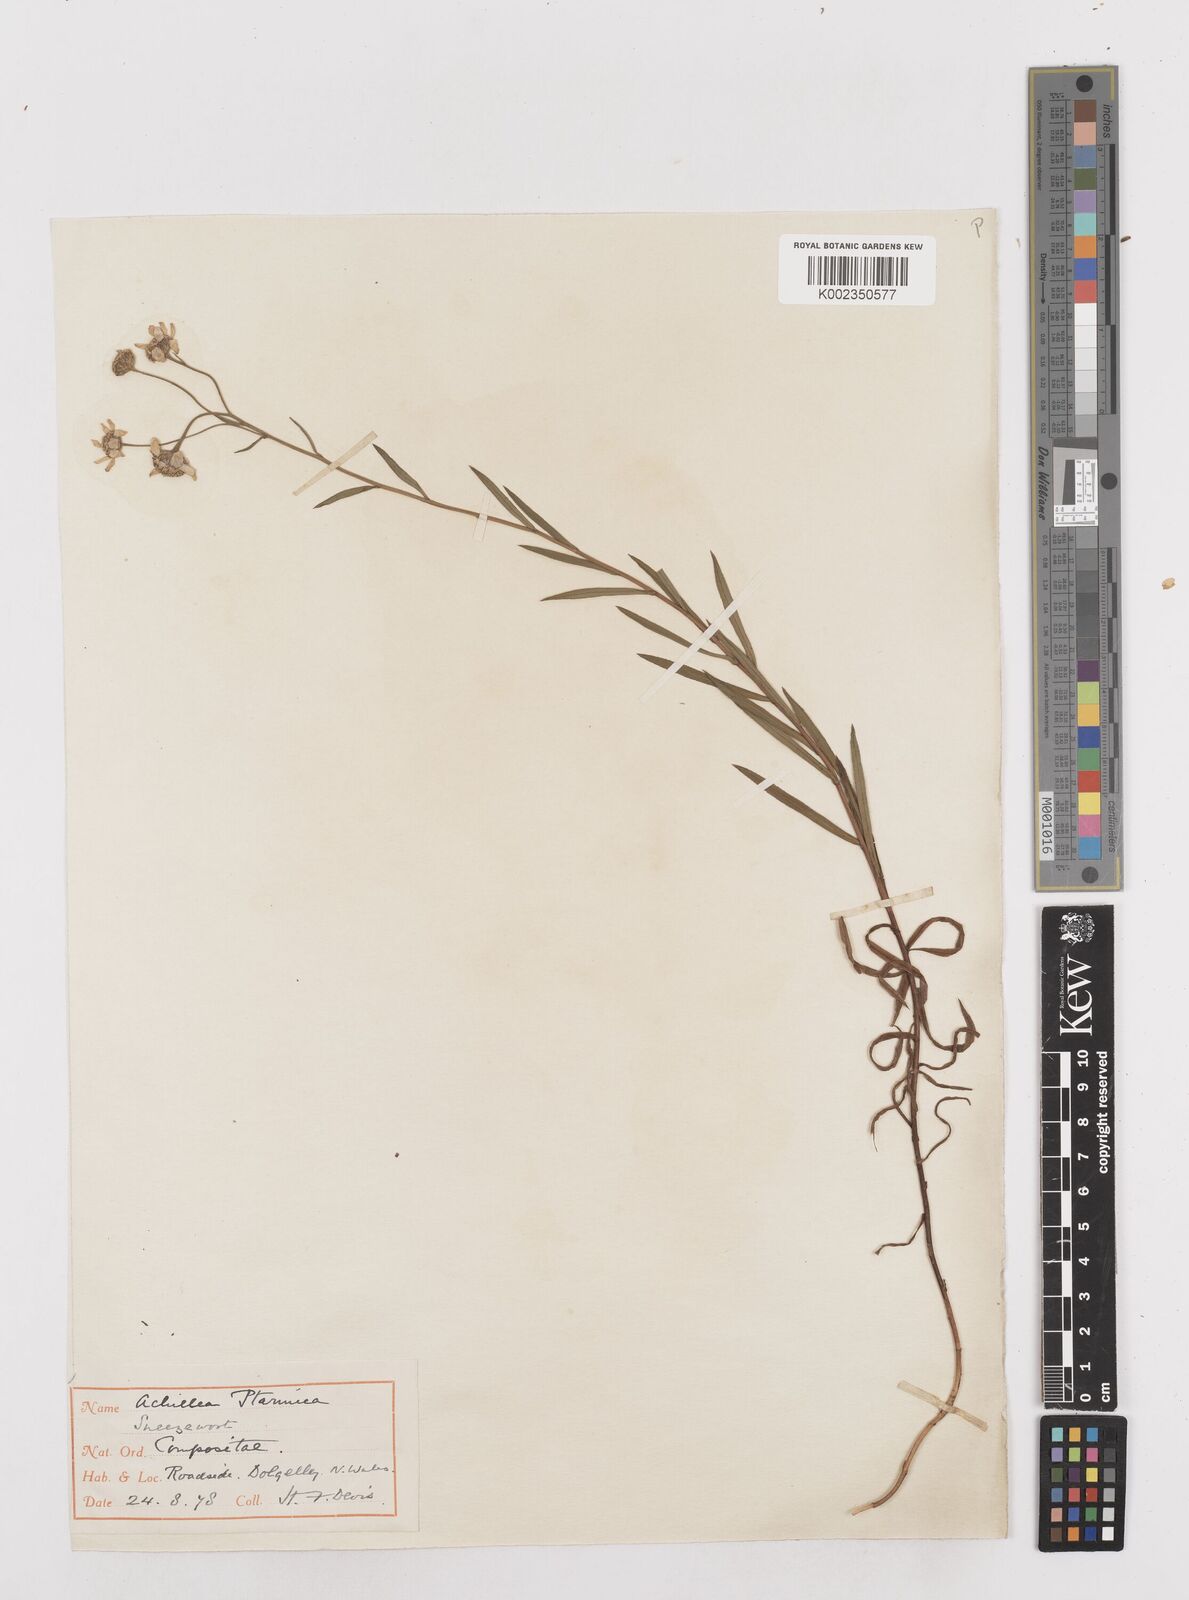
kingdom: Plantae
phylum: Tracheophyta
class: Magnoliopsida
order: Asterales
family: Asteraceae
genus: Achillea
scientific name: Achillea
